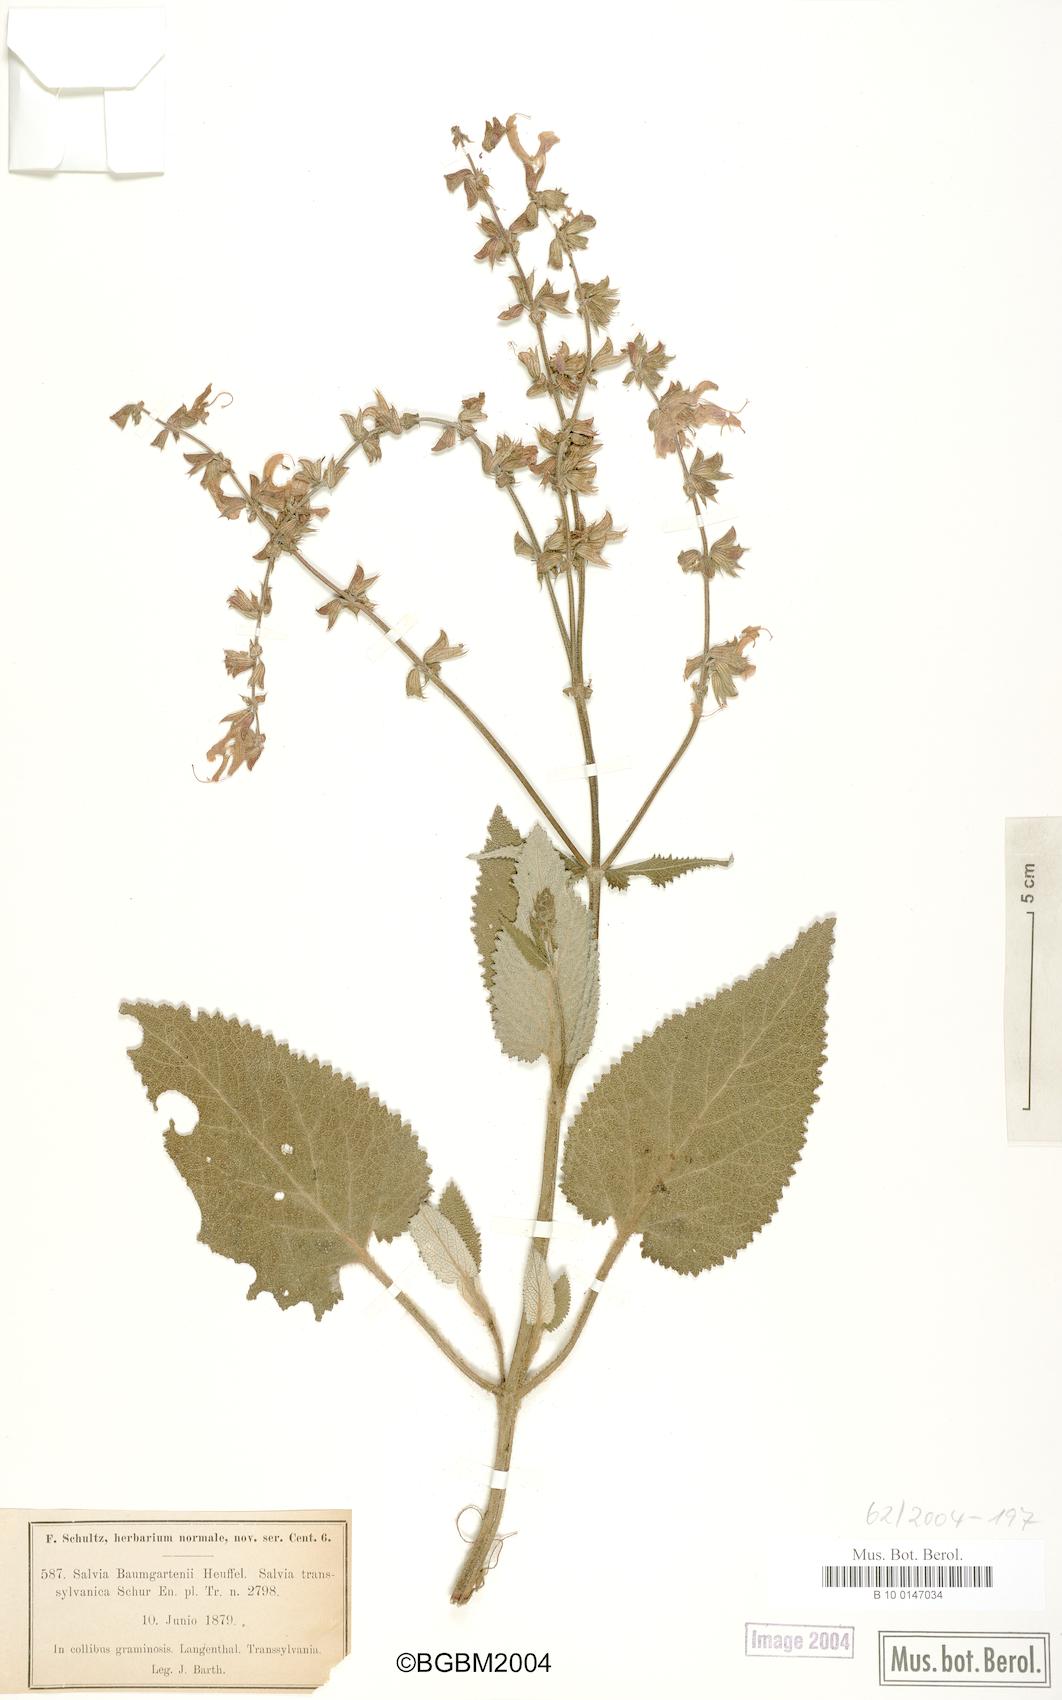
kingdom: Plantae
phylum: Tracheophyta
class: Magnoliopsida
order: Lamiales
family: Lamiaceae
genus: Salvia
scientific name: Salvia transsylvanica
